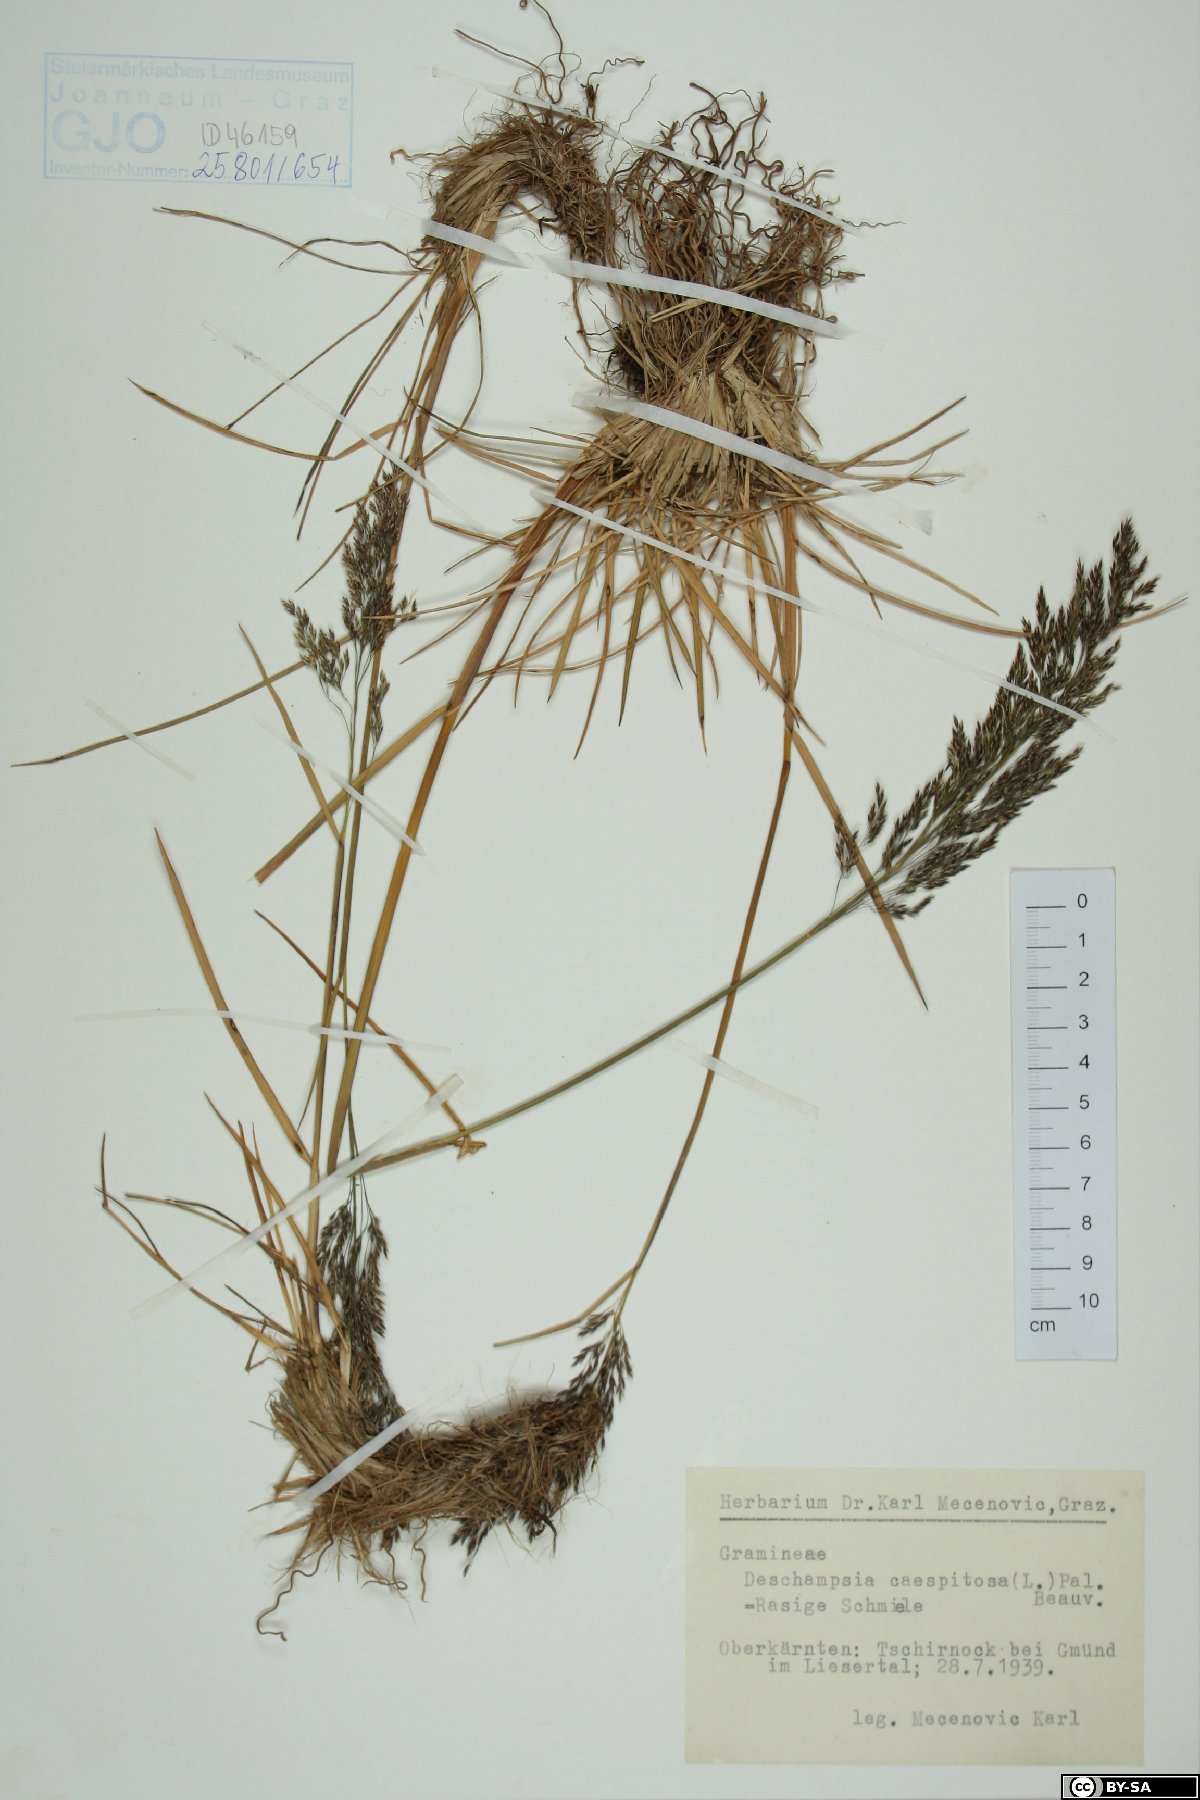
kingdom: Plantae
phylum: Tracheophyta
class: Liliopsida
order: Poales
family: Poaceae
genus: Deschampsia
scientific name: Deschampsia cespitosa
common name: Tufted hair-grass
